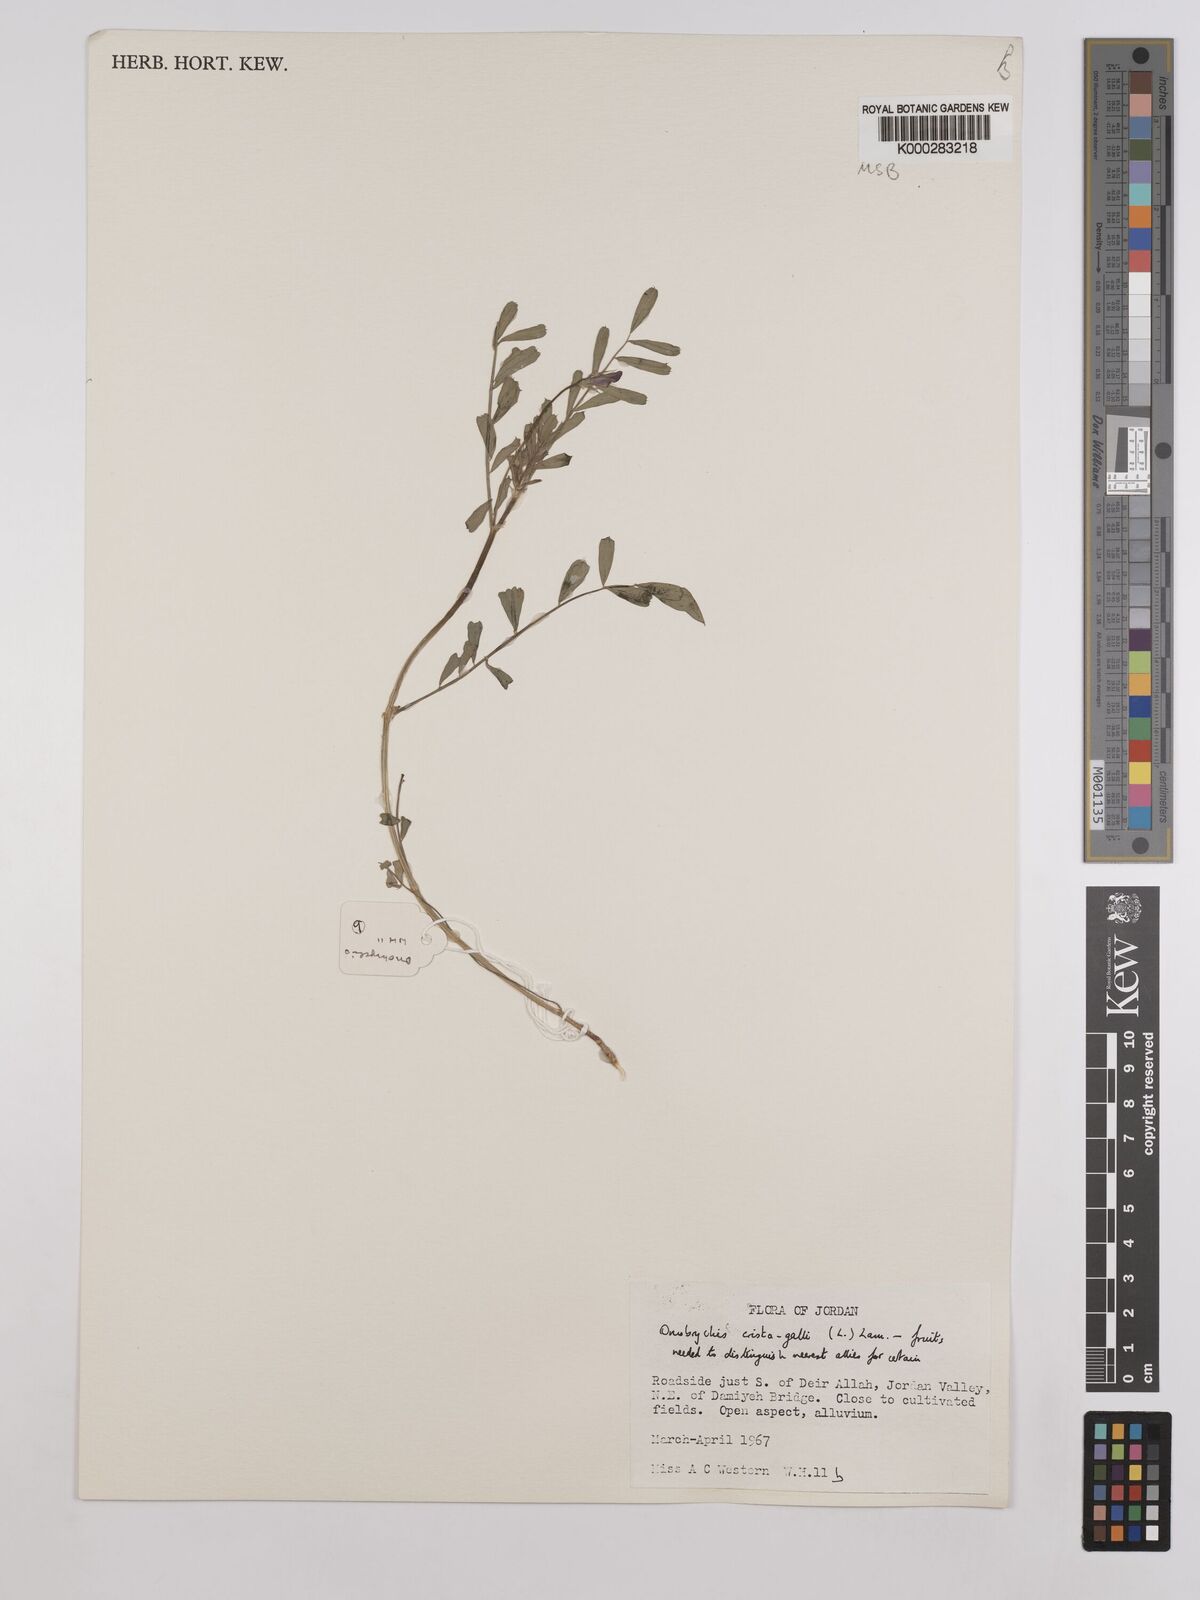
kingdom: Plantae
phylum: Tracheophyta
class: Magnoliopsida
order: Fabales
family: Fabaceae
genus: Onobrychis
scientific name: Onobrychis crista-galli
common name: Cockscomb sainfoin
